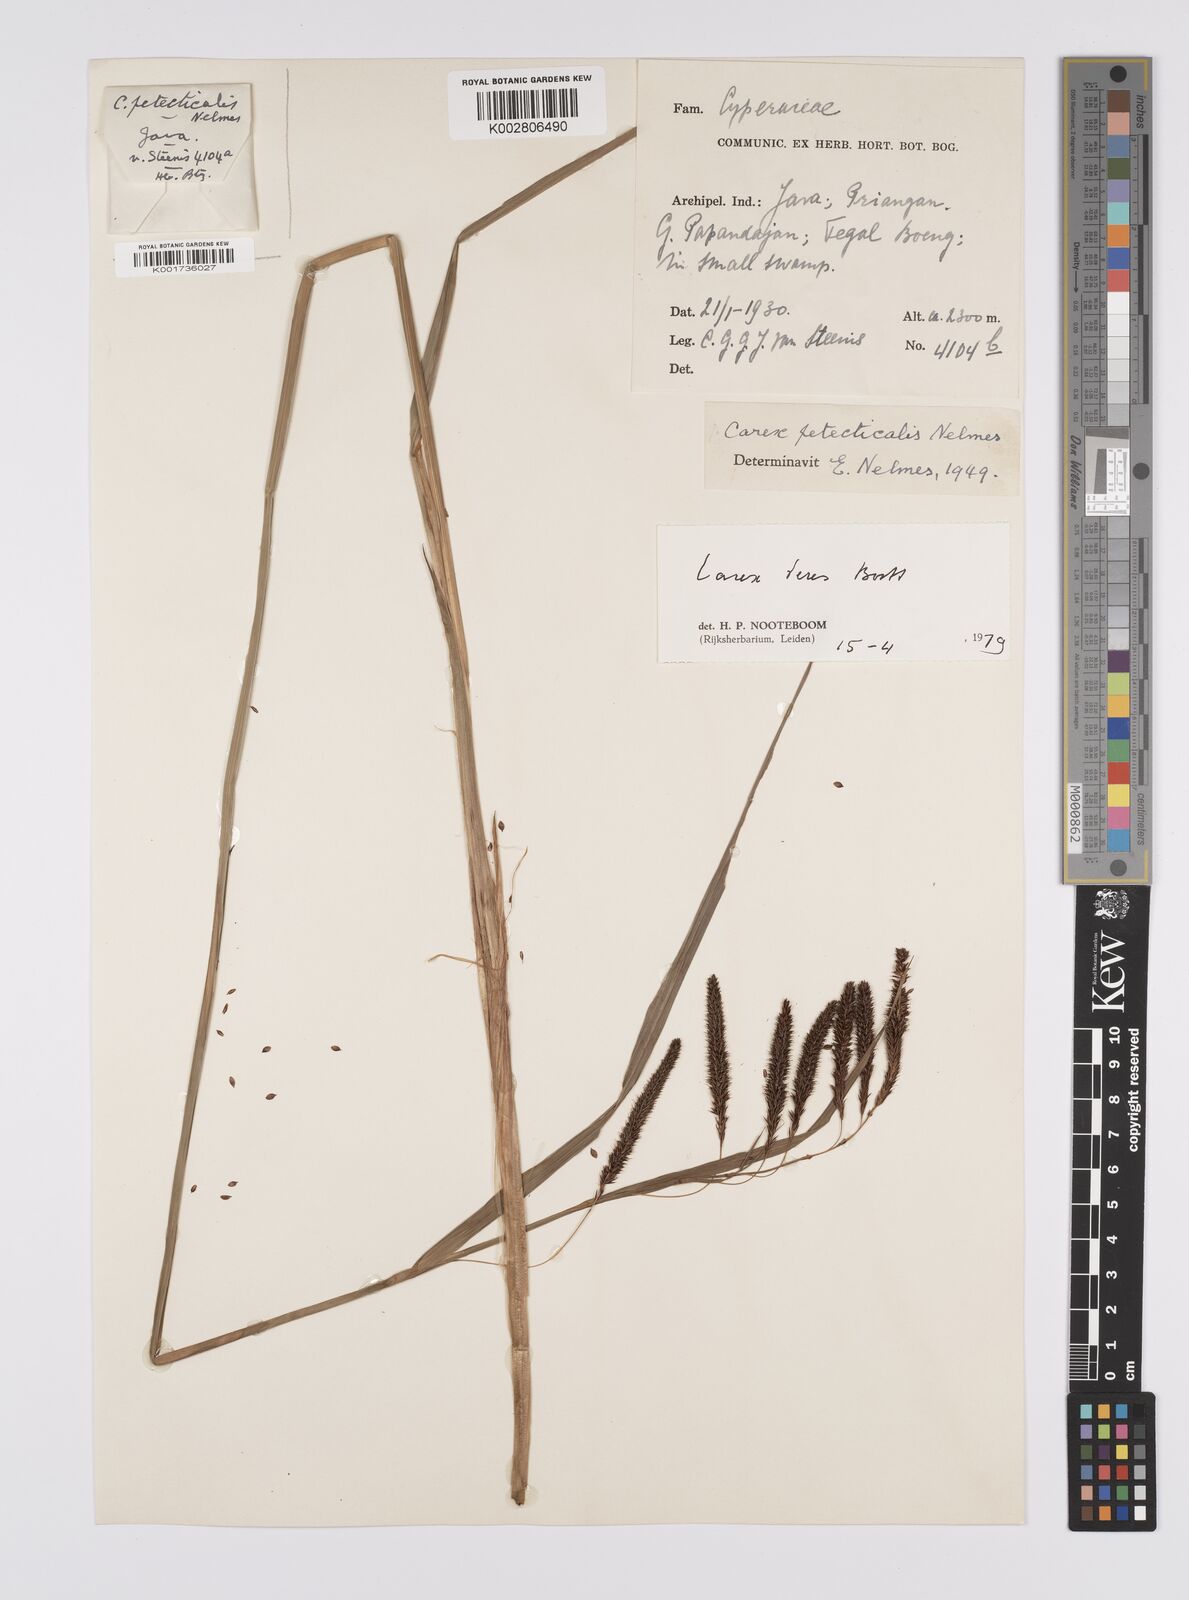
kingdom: Plantae
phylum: Tracheophyta
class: Liliopsida
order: Poales
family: Cyperaceae
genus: Carex
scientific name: Carex teres
